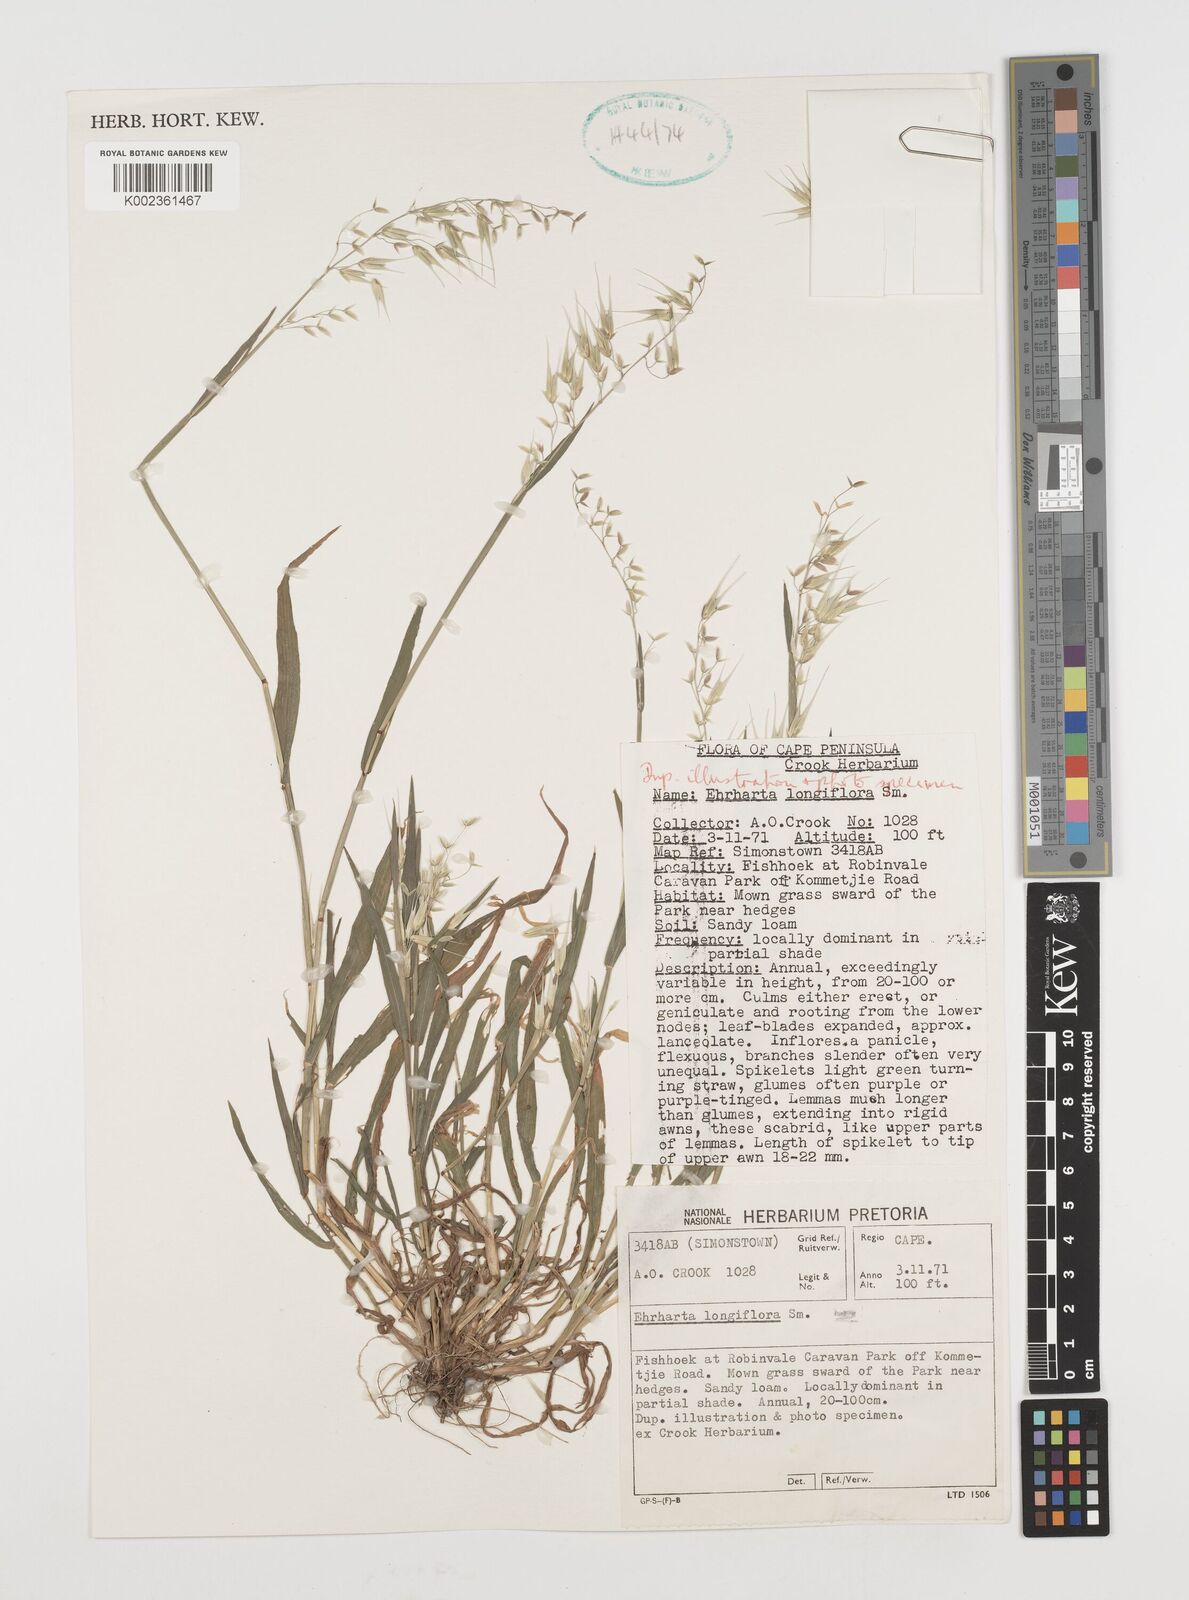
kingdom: Plantae
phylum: Tracheophyta
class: Liliopsida
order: Poales
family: Poaceae
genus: Ehrharta
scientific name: Ehrharta longiflora
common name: Longflowered veldtgrass
